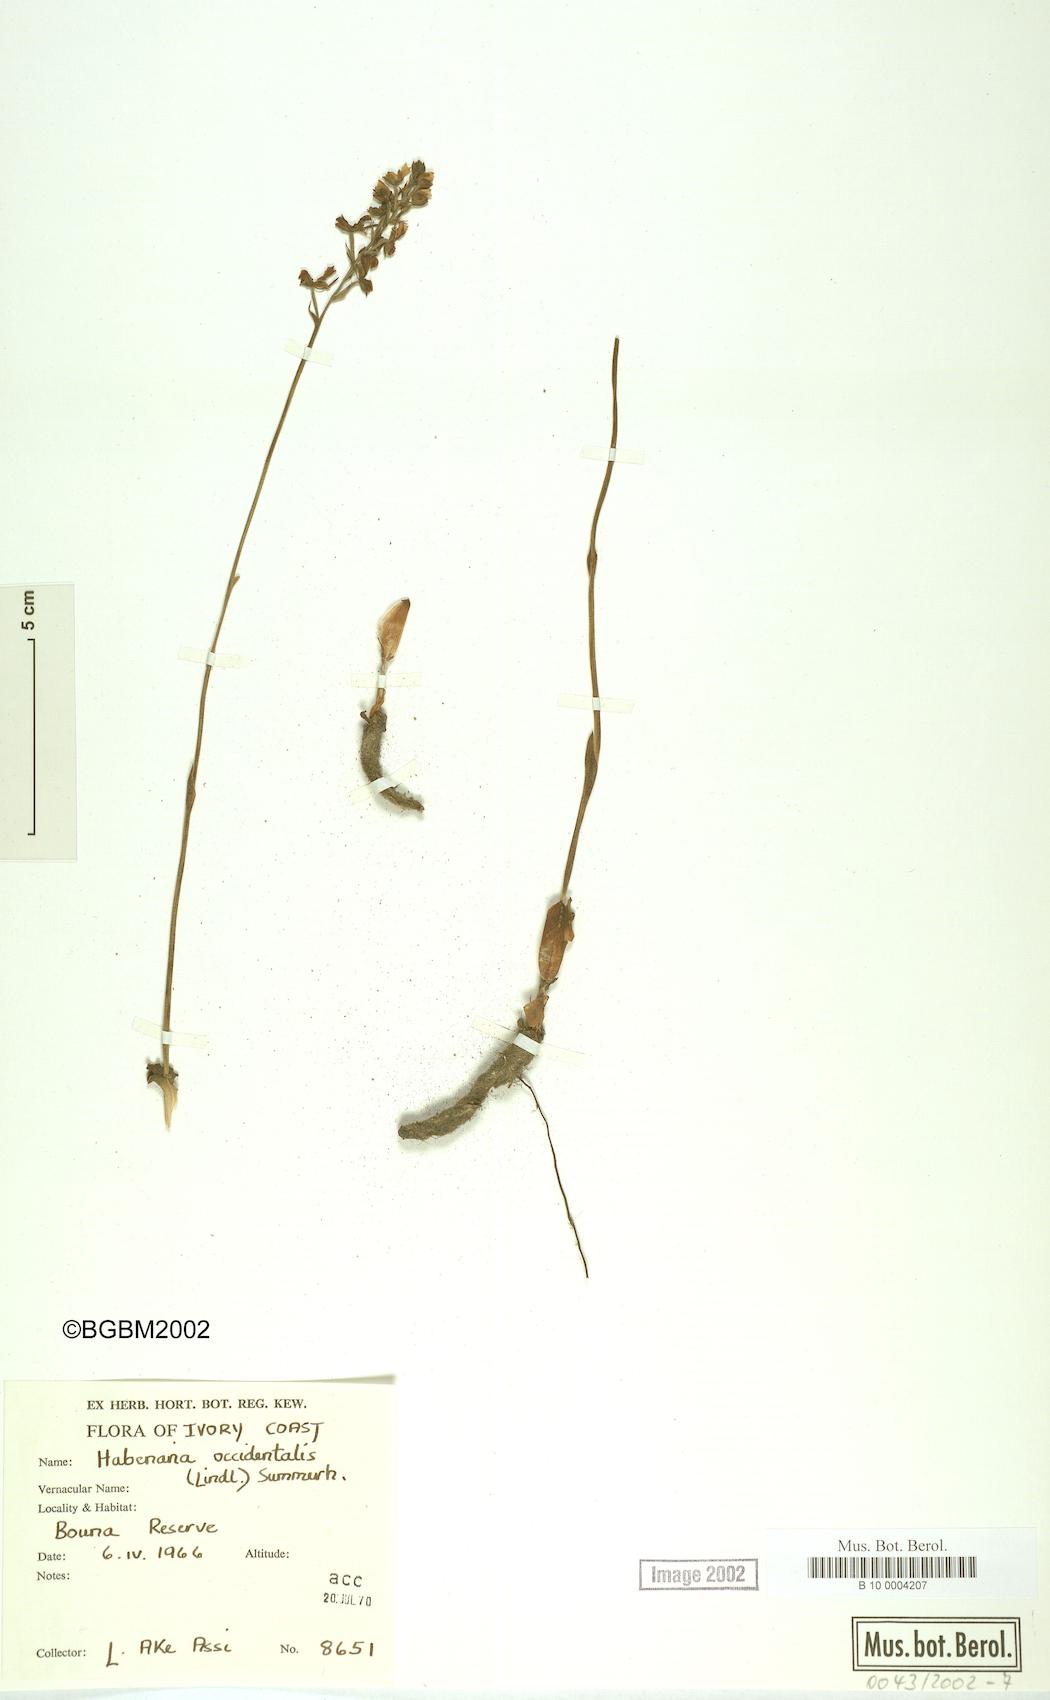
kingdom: Plantae
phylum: Tracheophyta
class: Liliopsida
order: Asparagales
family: Orchidaceae
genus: Habenaria
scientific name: Habenaria occidentalis
